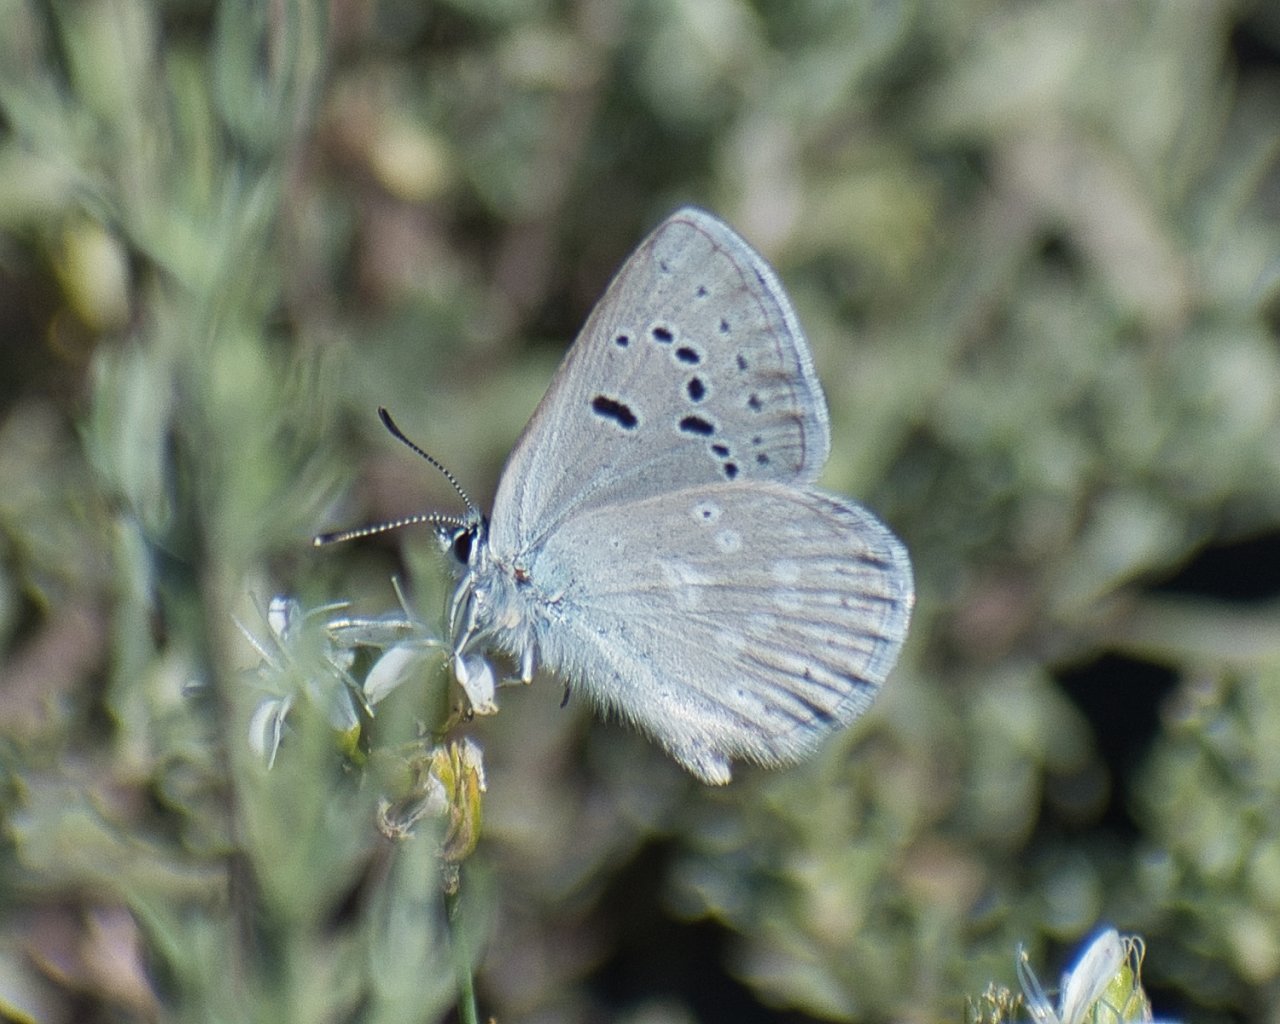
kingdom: Animalia
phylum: Arthropoda
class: Insecta
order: Lepidoptera
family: Lycaenidae
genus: Icaricia
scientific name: Icaricia icarioides
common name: Boisduval's Blue
